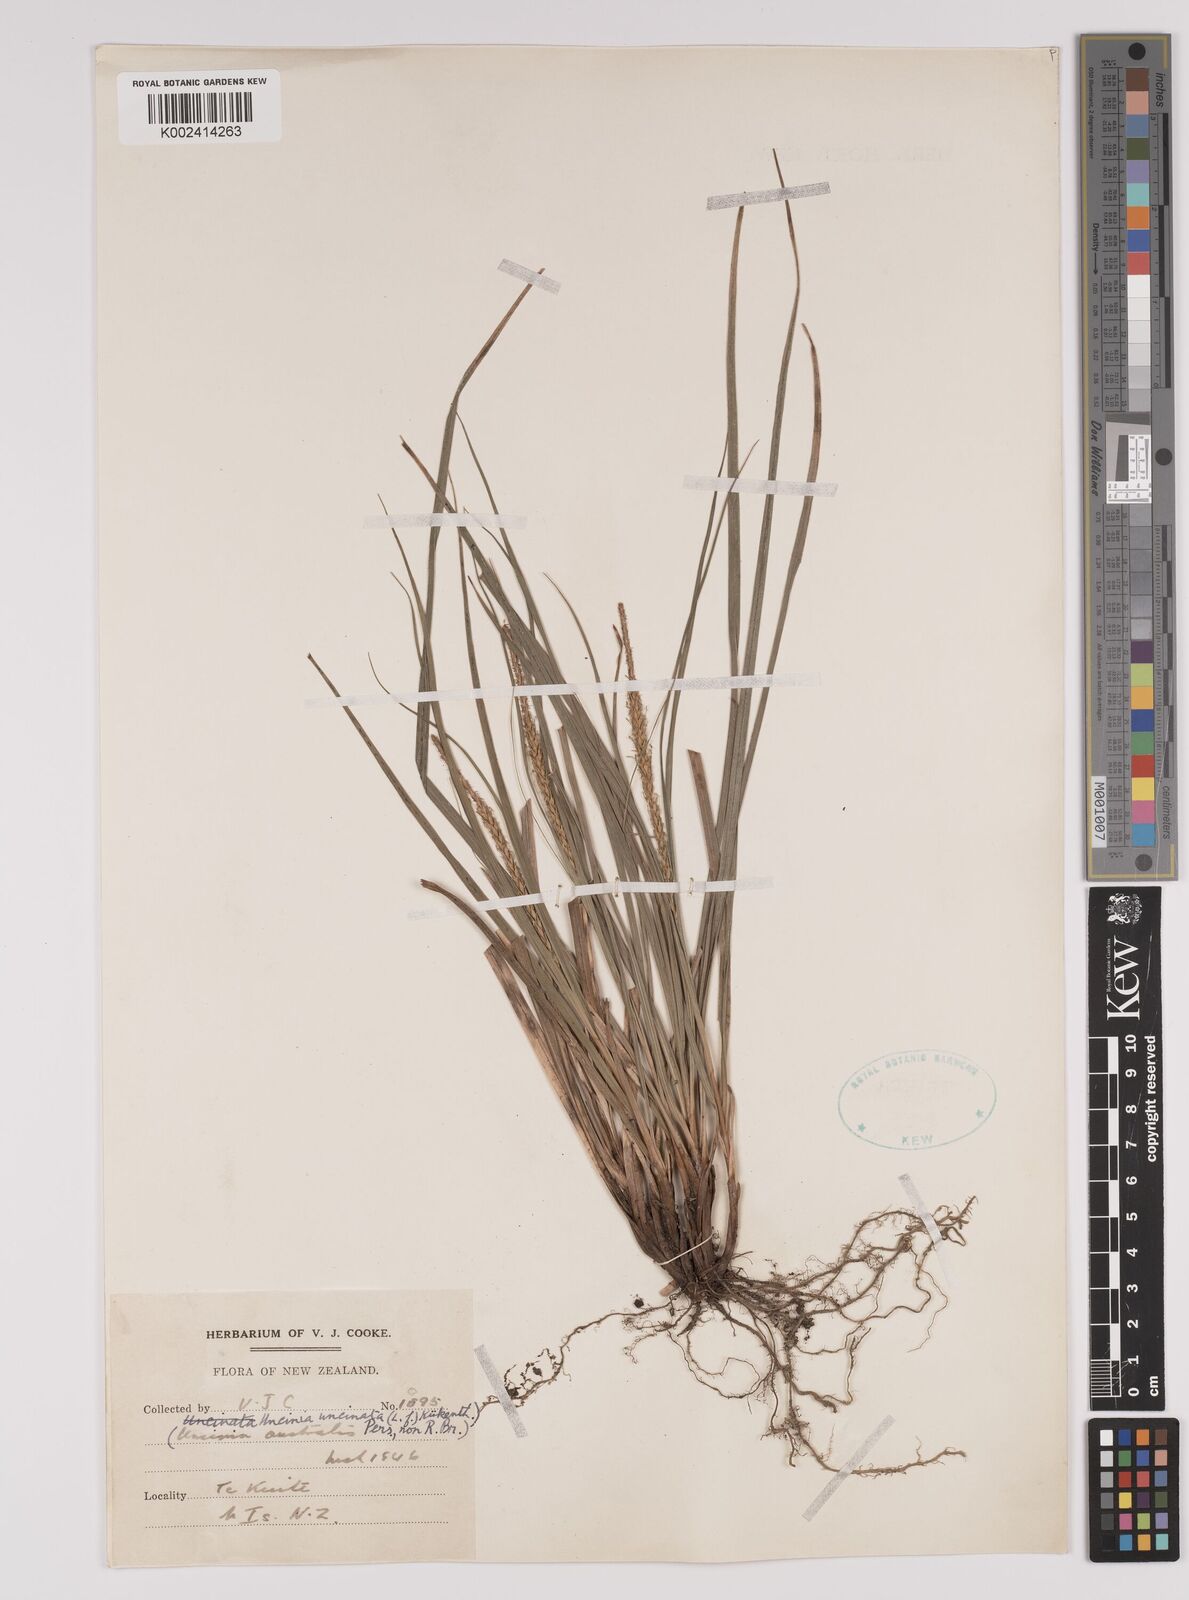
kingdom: Plantae
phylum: Tracheophyta
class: Liliopsida
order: Poales
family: Cyperaceae
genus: Carex
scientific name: Carex uncinata
